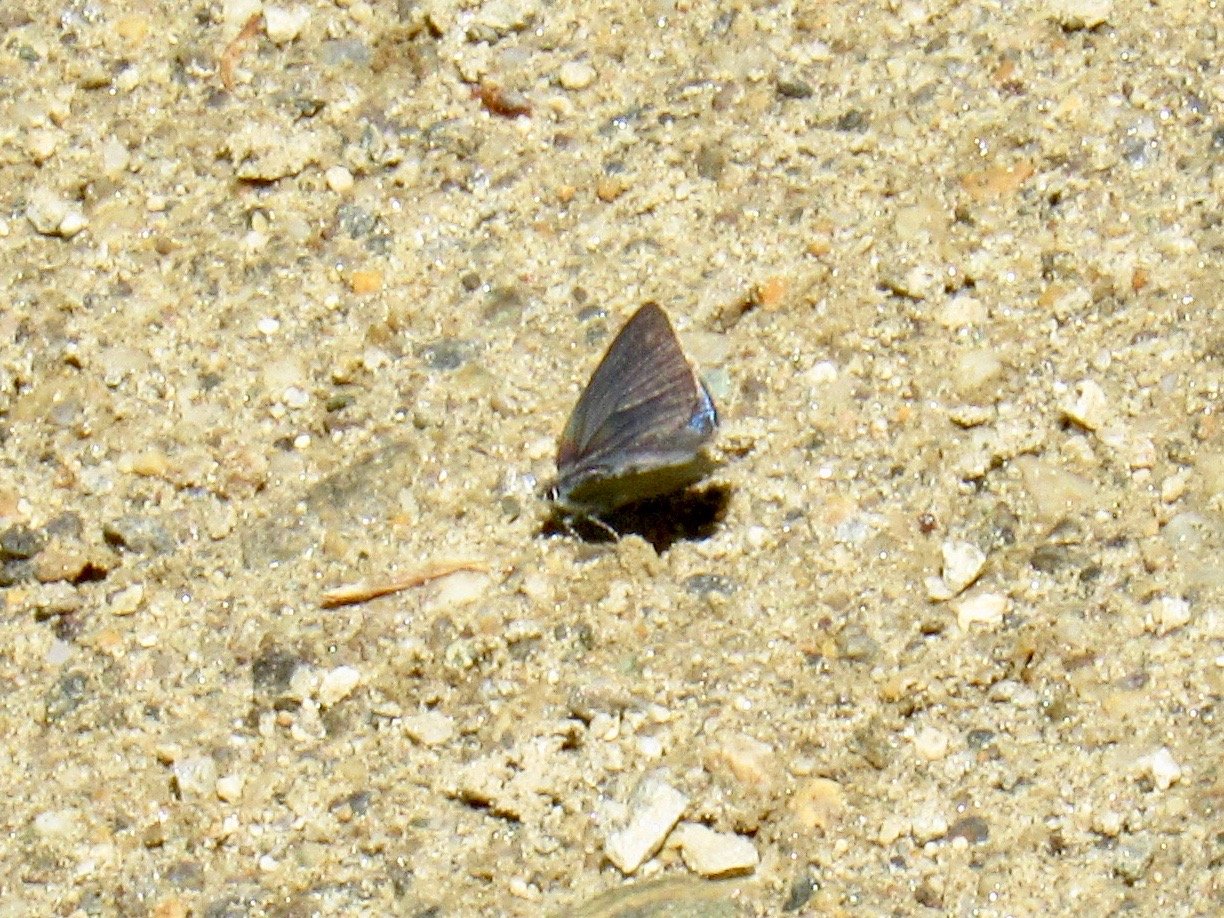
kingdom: Animalia
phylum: Arthropoda
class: Insecta
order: Lepidoptera
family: Lycaenidae
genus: Erora
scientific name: Erora laeta
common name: Early Hairstreak
